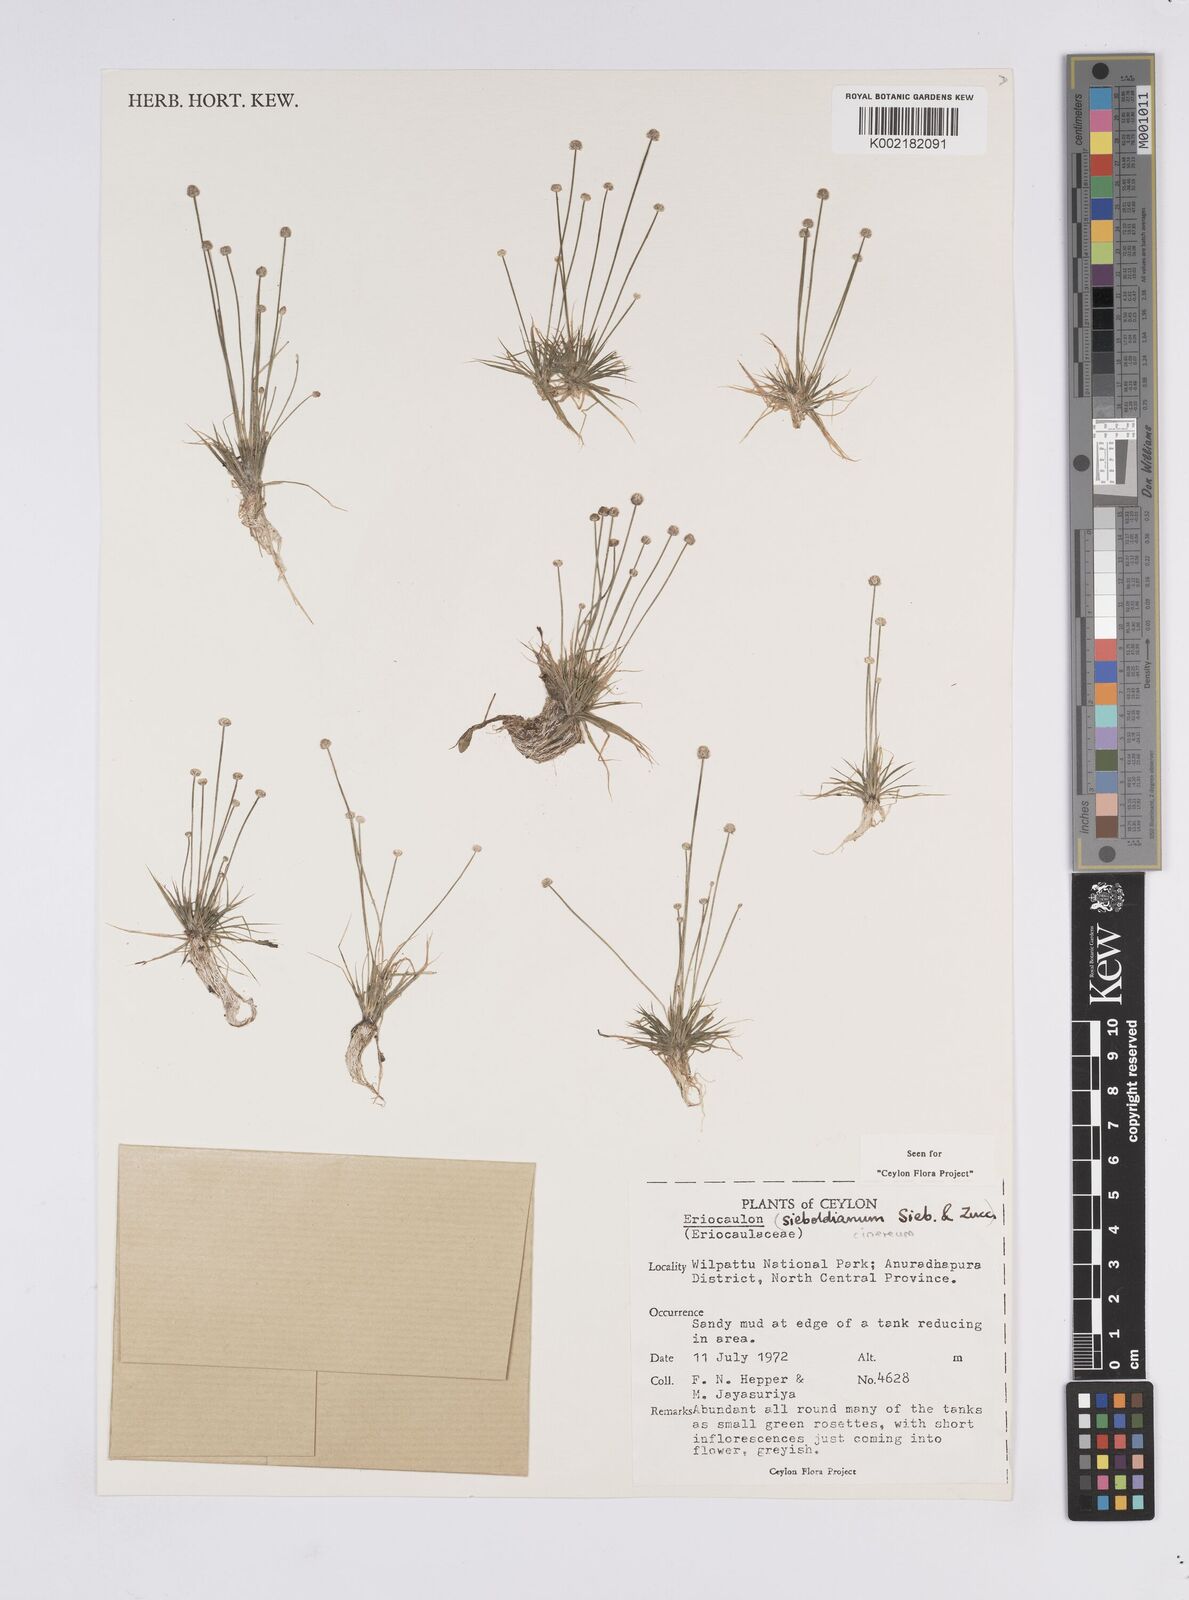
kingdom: Plantae
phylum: Tracheophyta
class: Liliopsida
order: Poales
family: Eriocaulaceae
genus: Eriocaulon
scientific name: Eriocaulon cinereum
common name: Ashy pipewort
